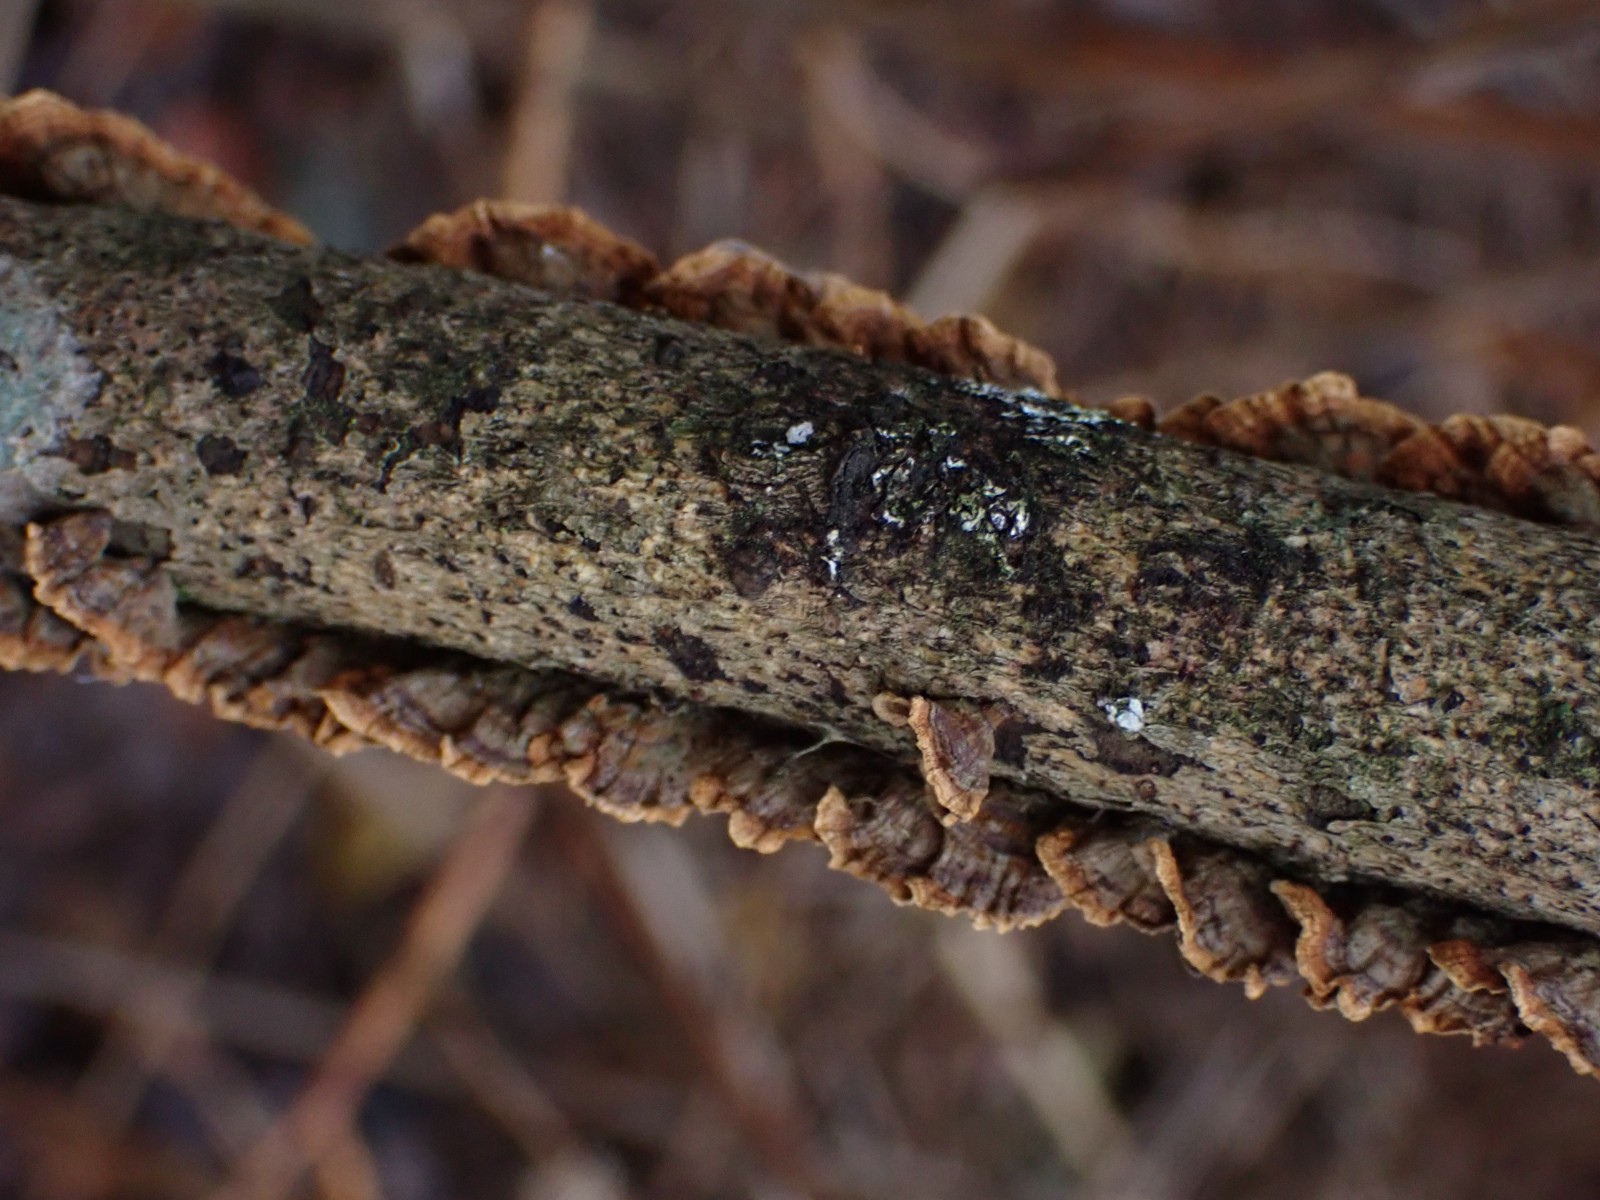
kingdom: Fungi
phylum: Basidiomycota
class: Agaricomycetes
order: Hymenochaetales
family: Hymenochaetaceae
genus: Hydnoporia
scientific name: Hydnoporia tabacina
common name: tobaksbrun ruslædersvamp
